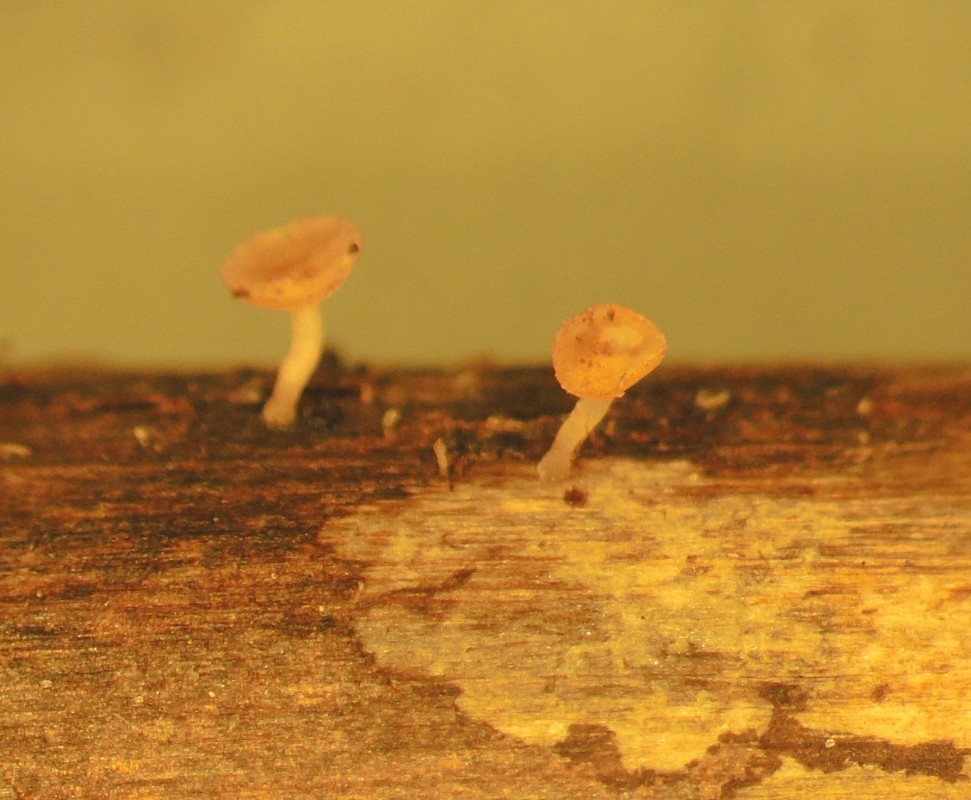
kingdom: Fungi
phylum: Ascomycota
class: Leotiomycetes
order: Helotiales
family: Helotiaceae
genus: Cyathicula
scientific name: Cyathicula cyathoidea
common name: pokal-stilkskive
